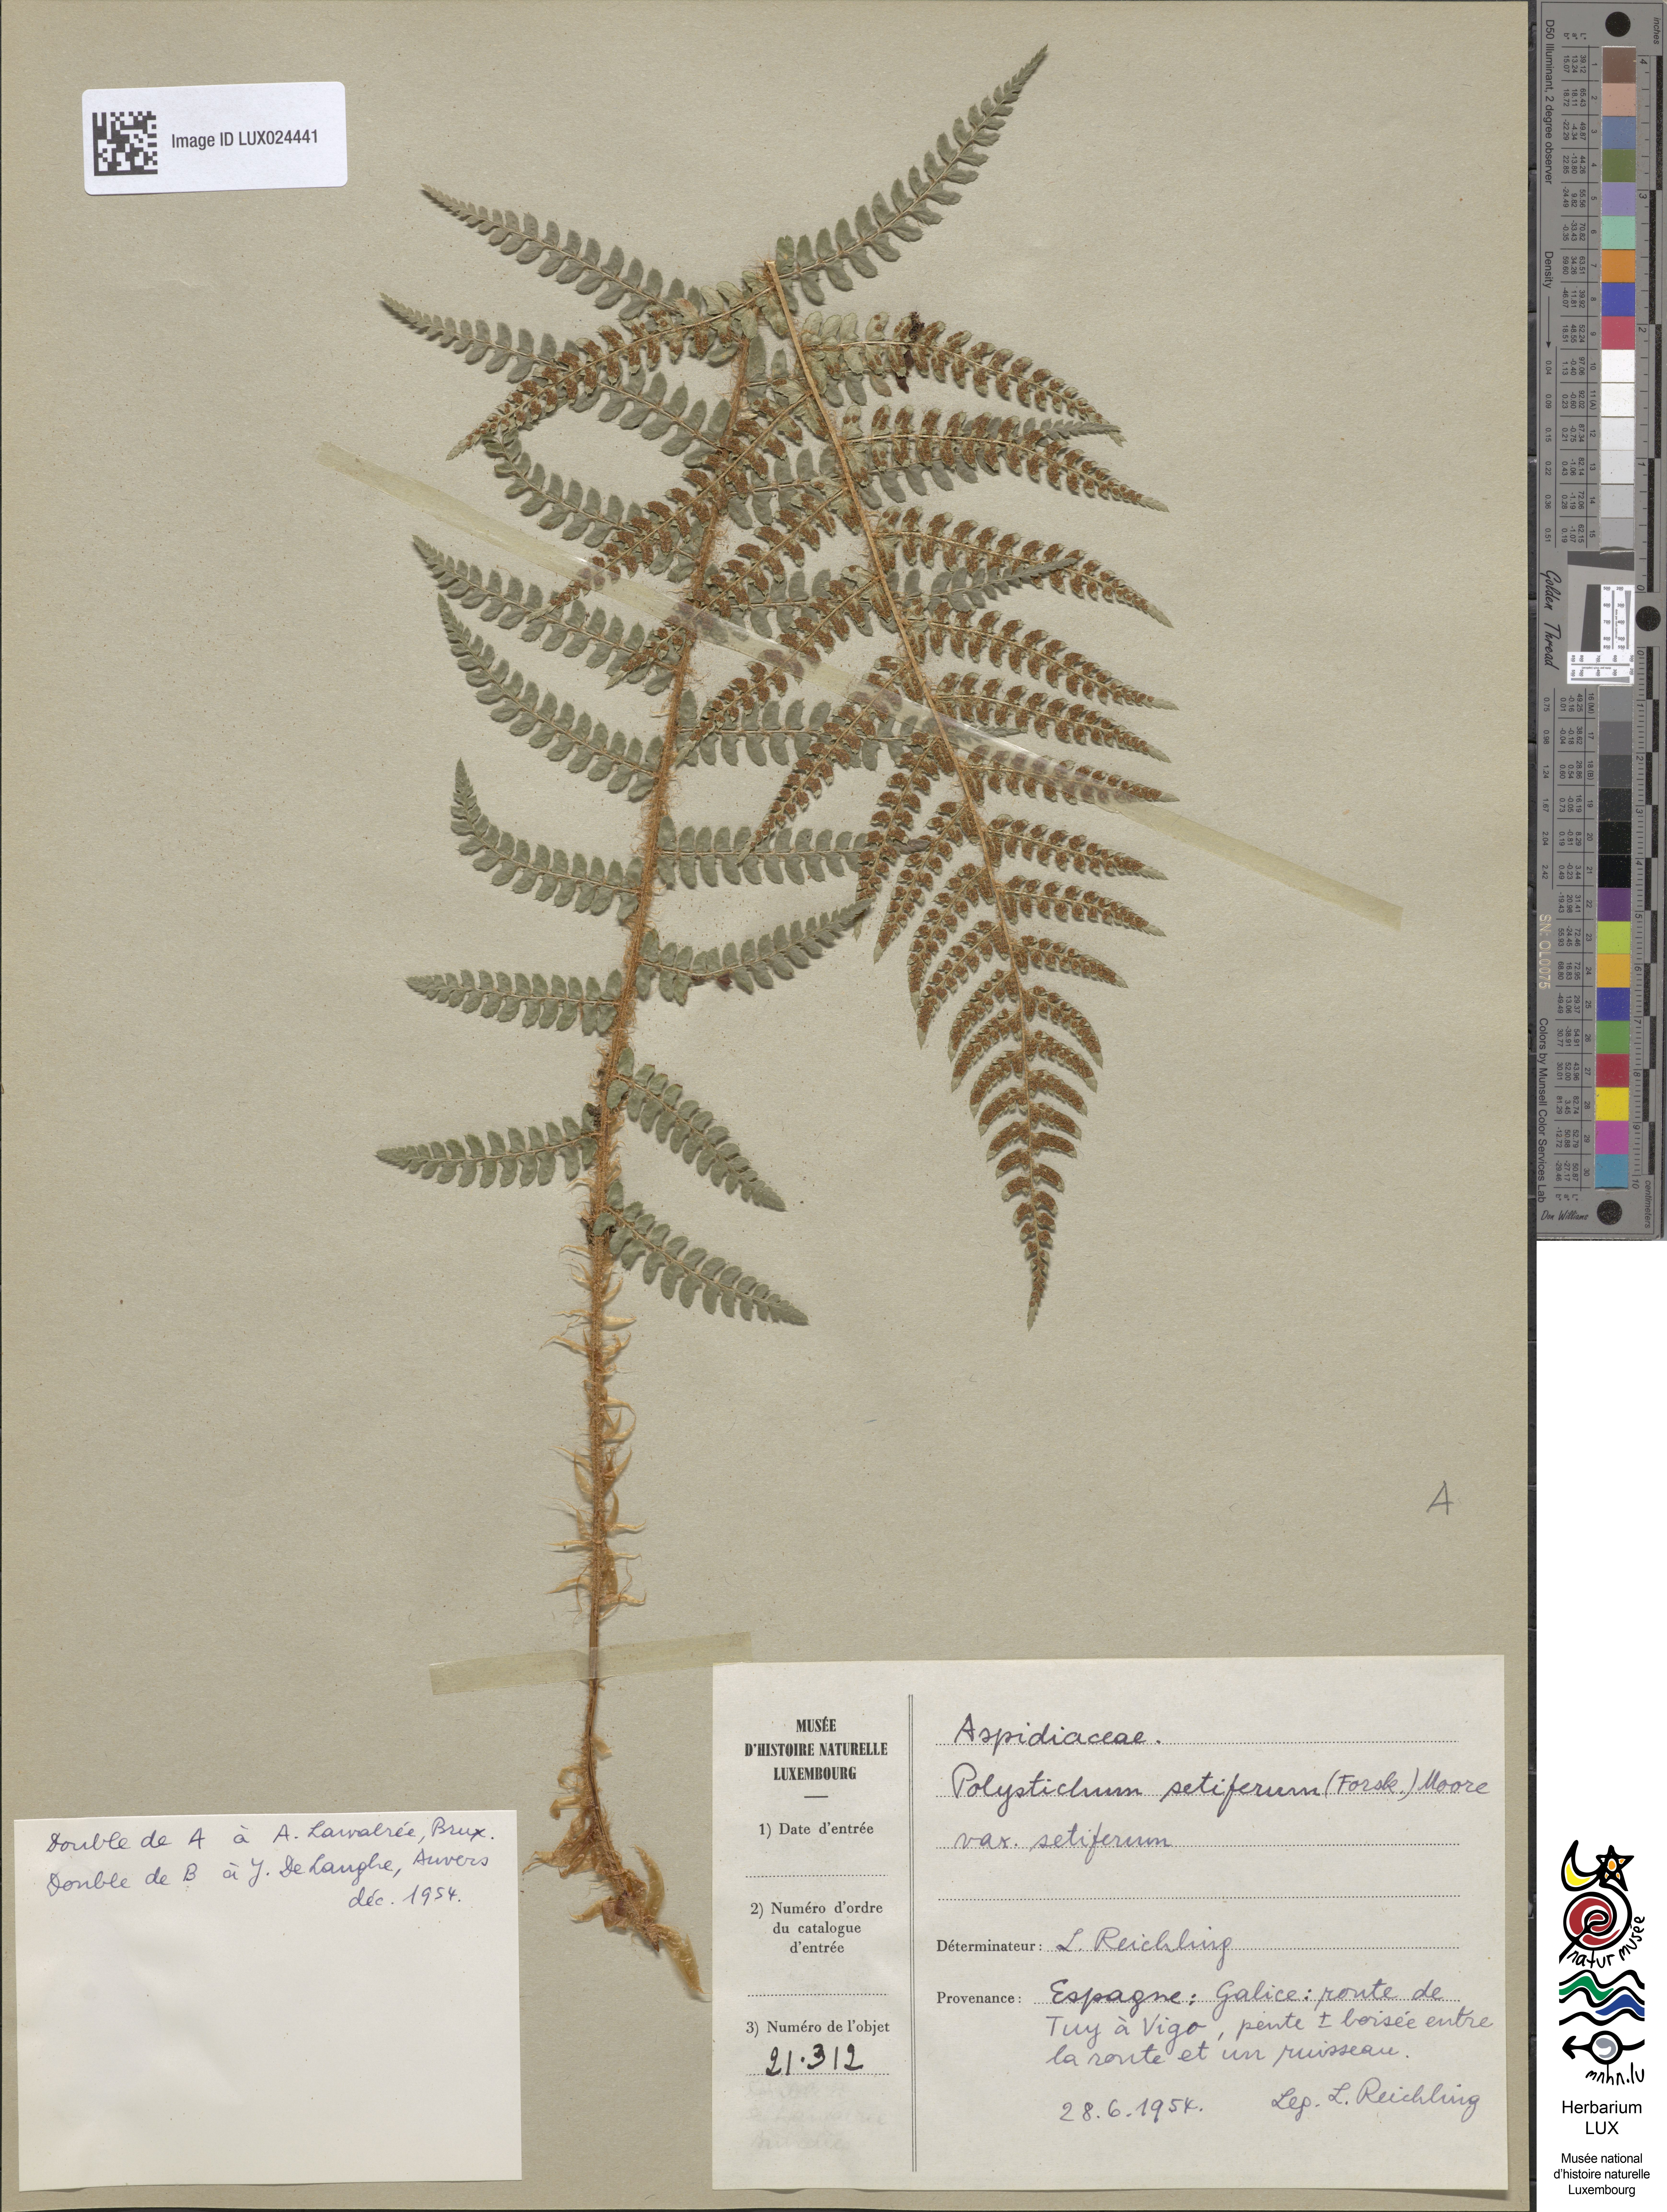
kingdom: Plantae
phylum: Tracheophyta
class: Polypodiopsida
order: Polypodiales
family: Dryopteridaceae
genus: Polystichum
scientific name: Polystichum setiferum
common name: Soft shield-fern
